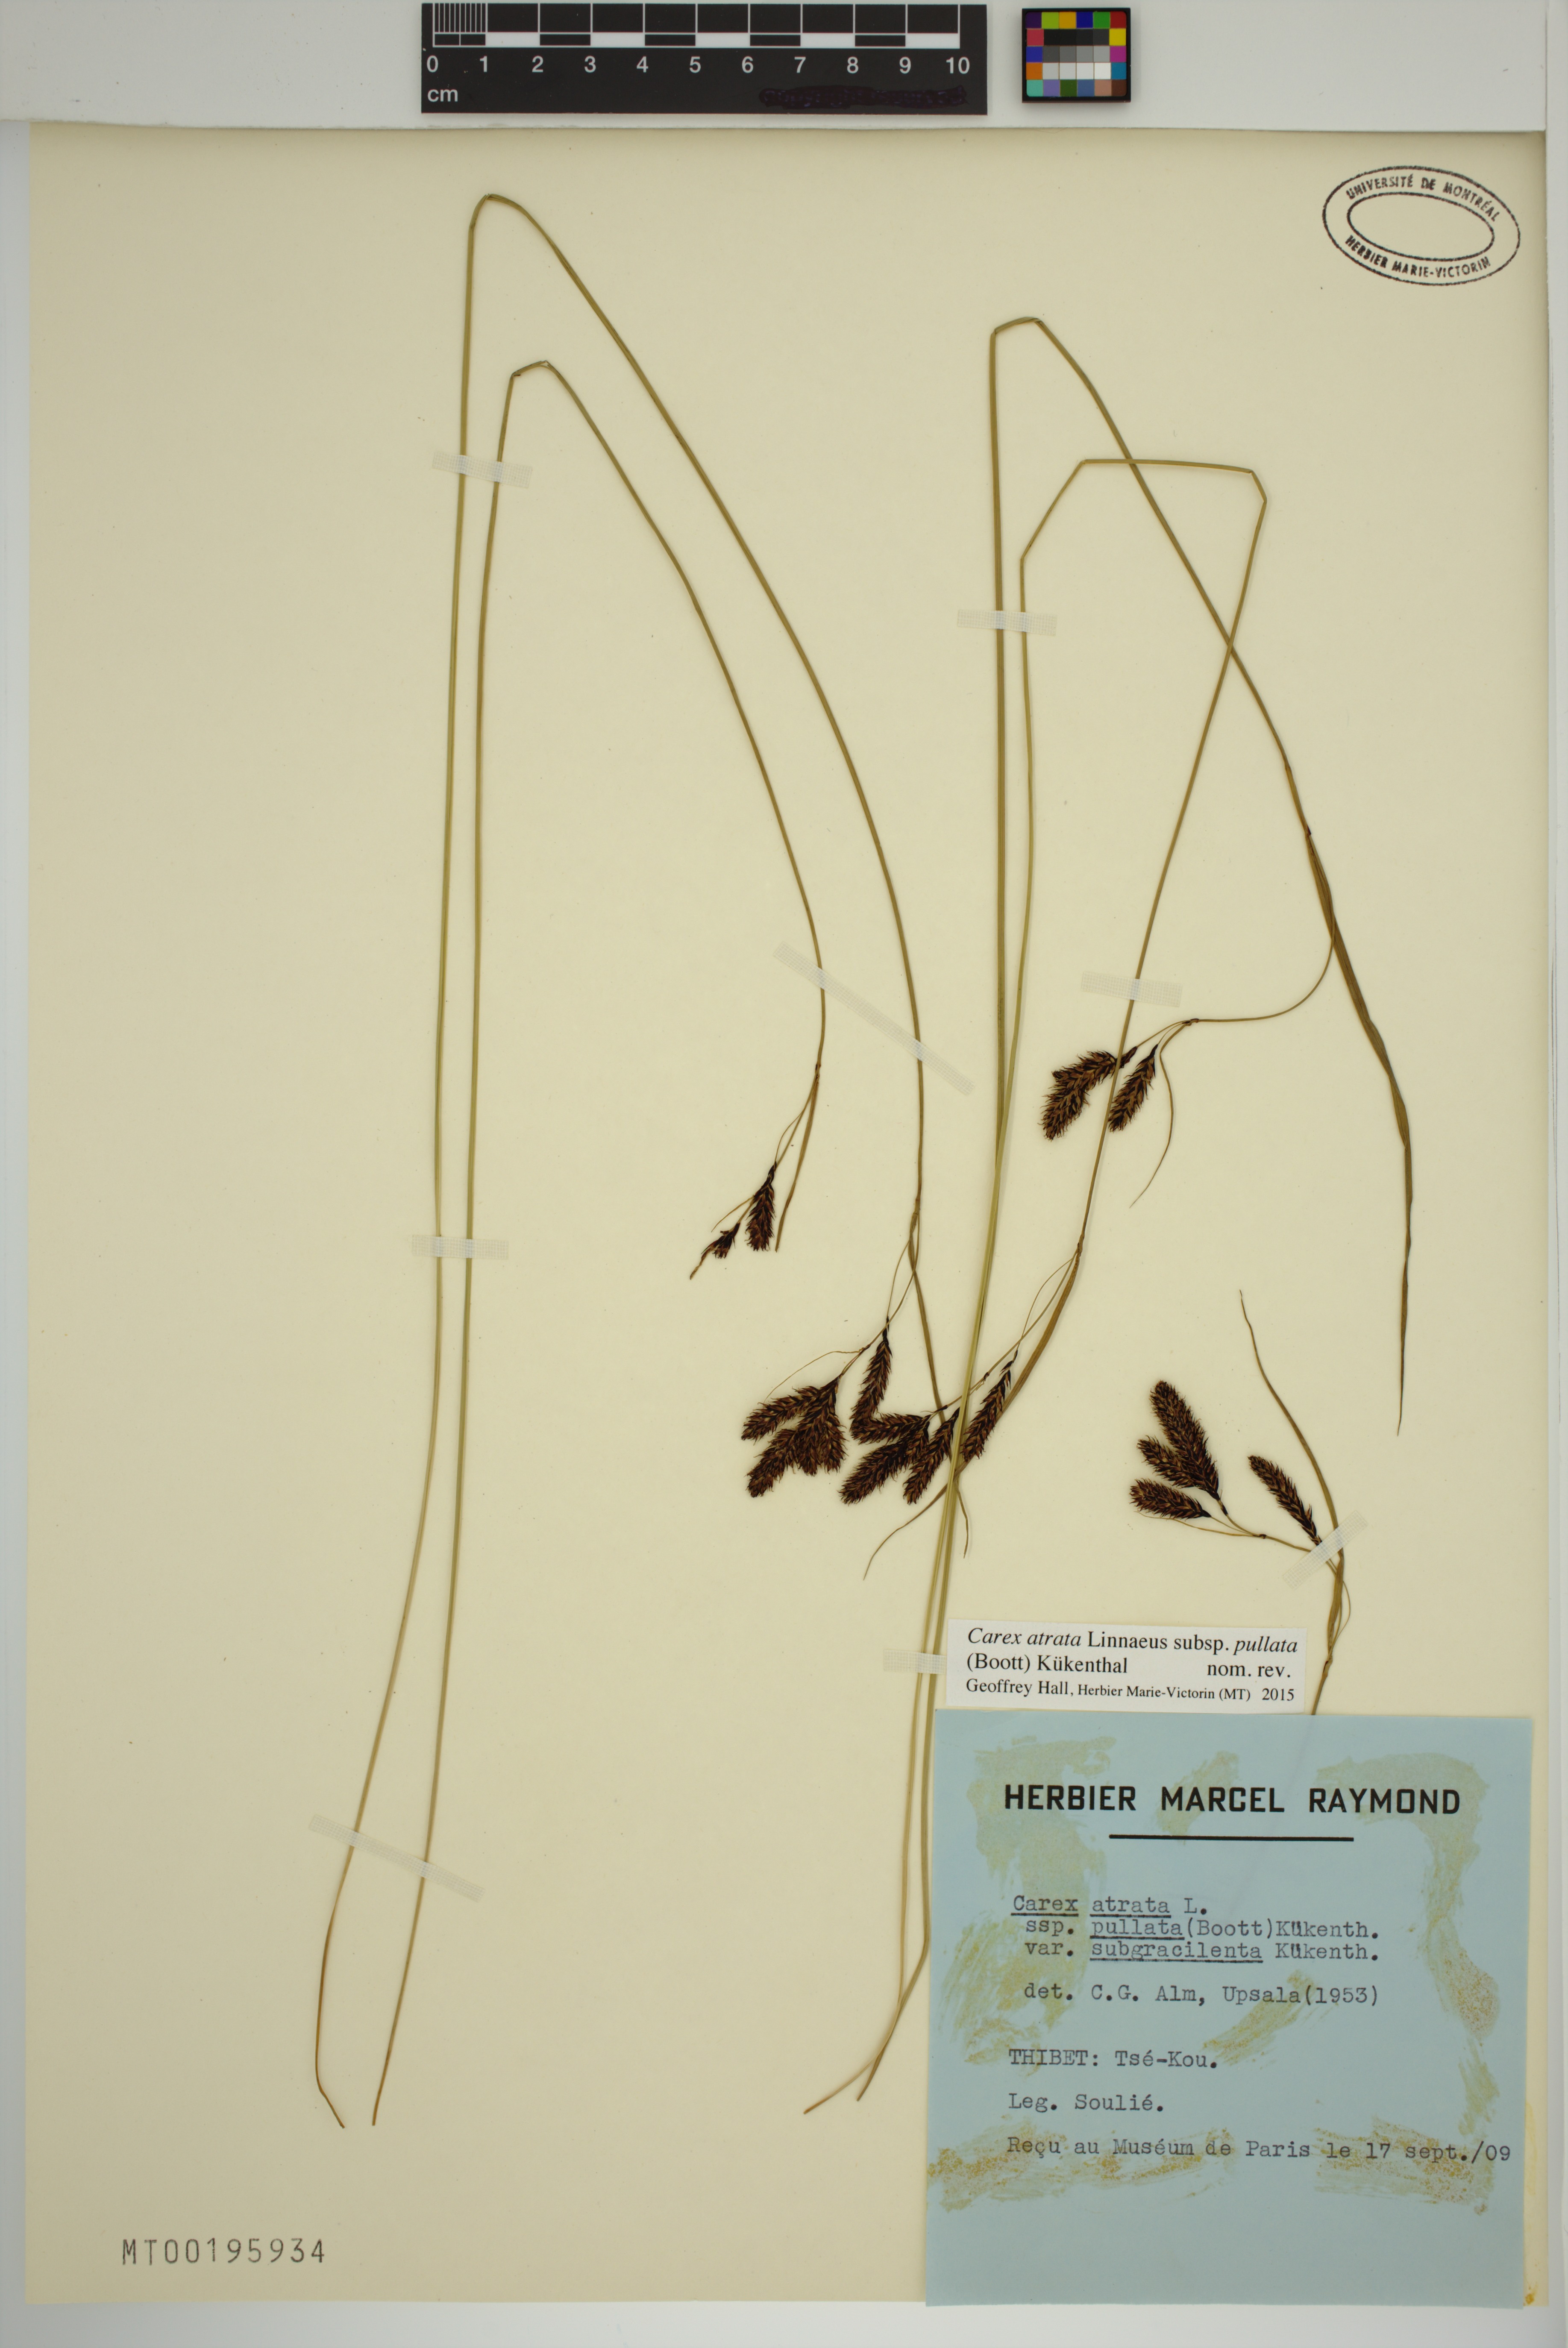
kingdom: Plantae
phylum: Tracheophyta
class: Liliopsida
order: Poales
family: Cyperaceae
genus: Carex
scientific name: Carex atrata
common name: Black alpine sedge
